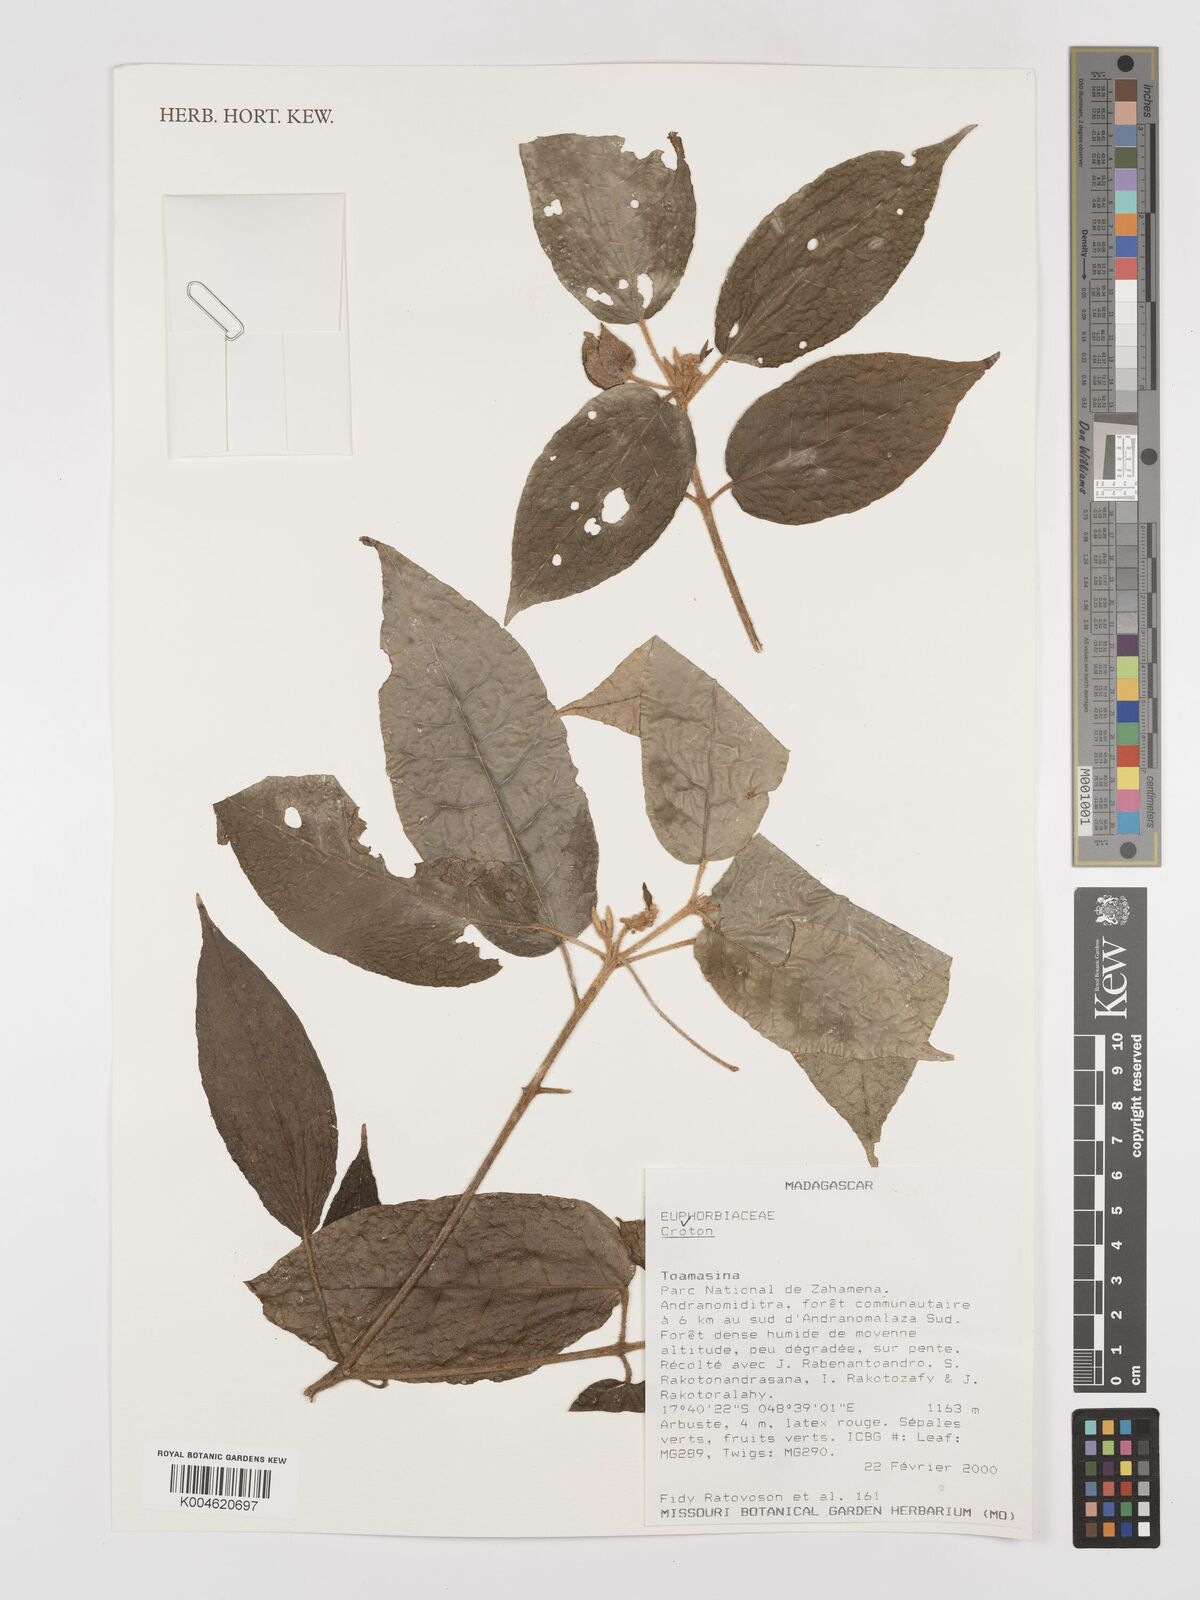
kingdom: Plantae
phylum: Tracheophyta
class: Magnoliopsida
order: Malpighiales
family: Euphorbiaceae
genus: Croton
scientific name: Croton
